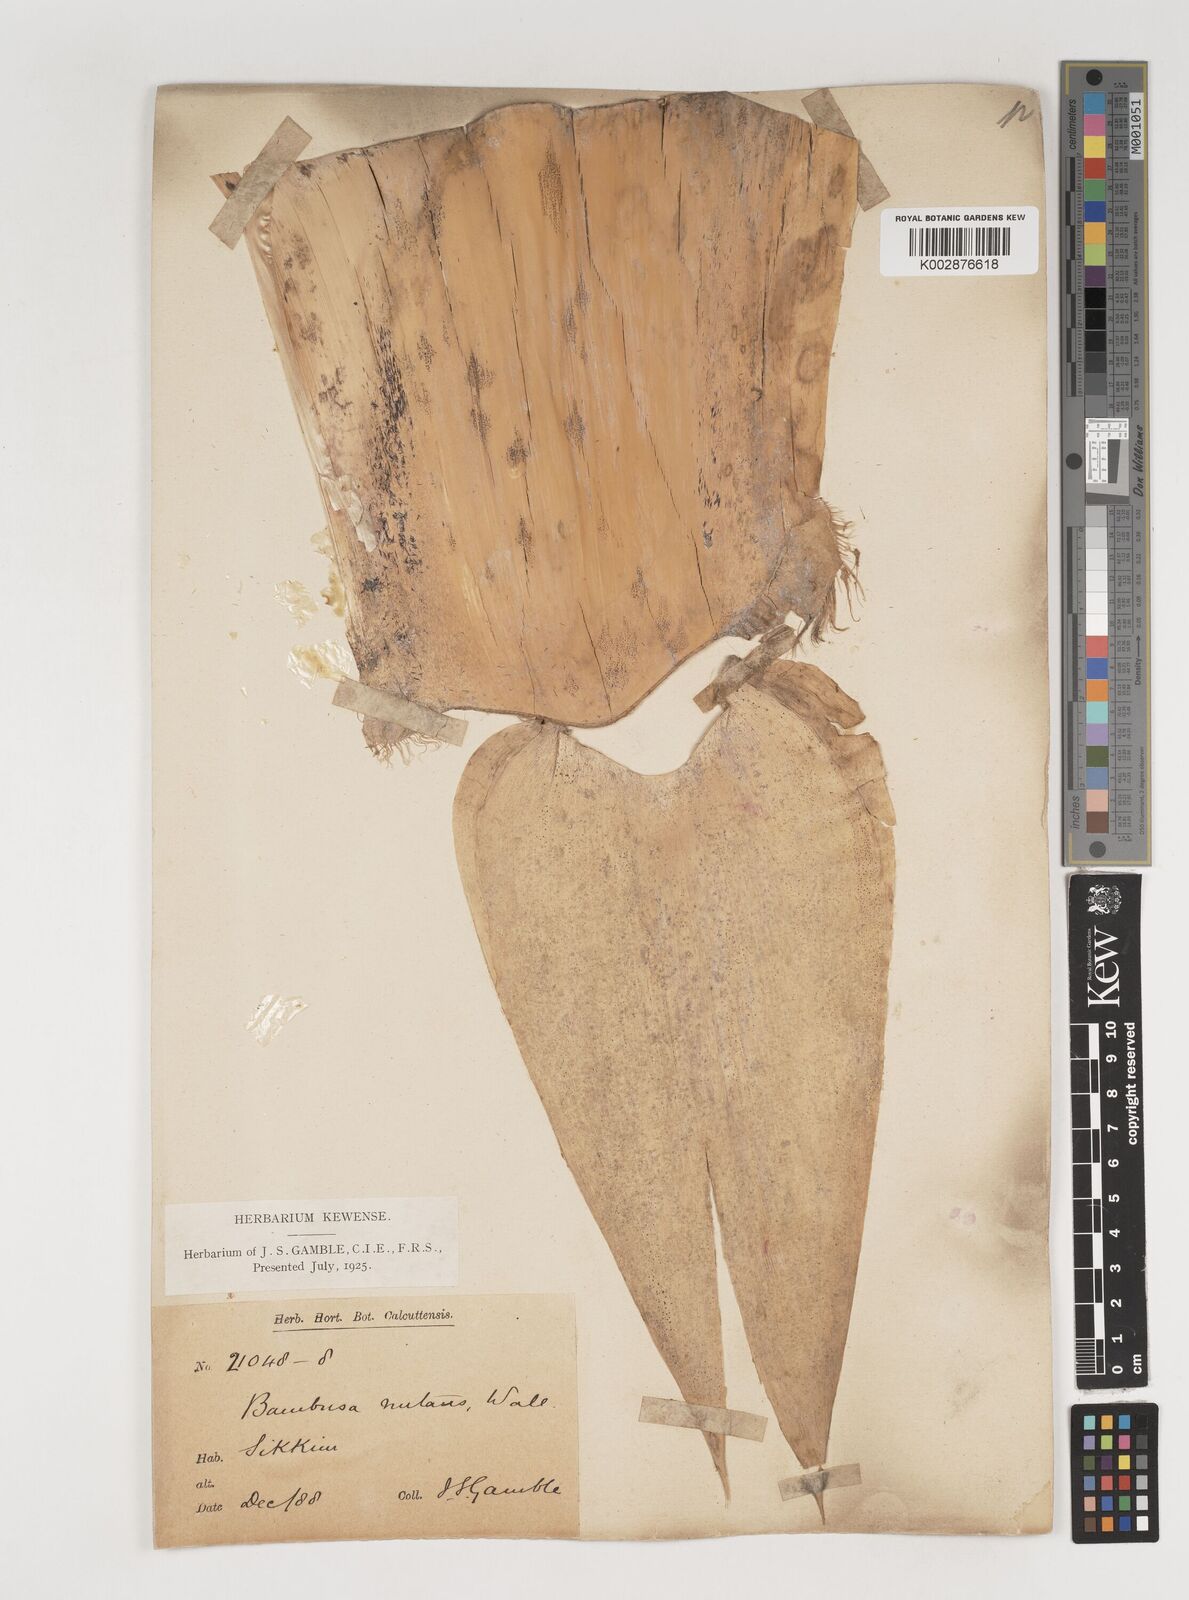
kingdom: Plantae
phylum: Tracheophyta
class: Liliopsida
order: Poales
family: Poaceae
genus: Bambusa
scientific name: Bambusa nutans
